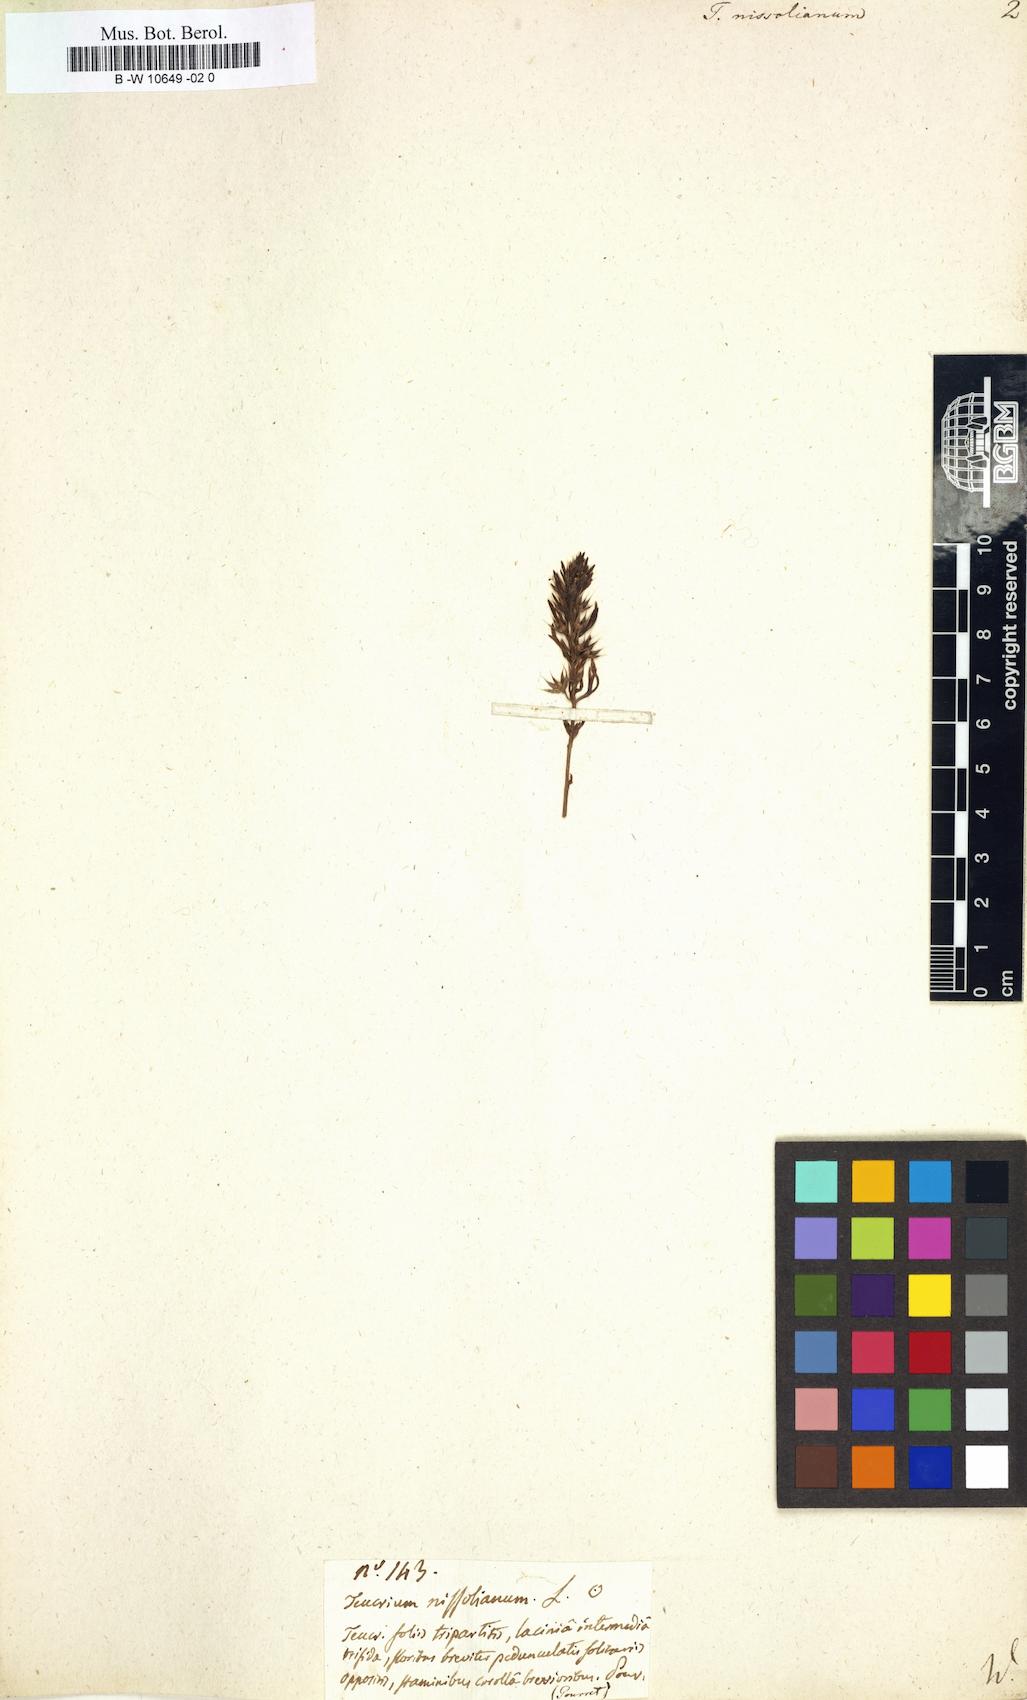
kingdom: Plantae
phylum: Tracheophyta
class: Magnoliopsida
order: Lamiales
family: Lamiaceae
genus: Teucrium
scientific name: Teucrium pseudochamaepitys
